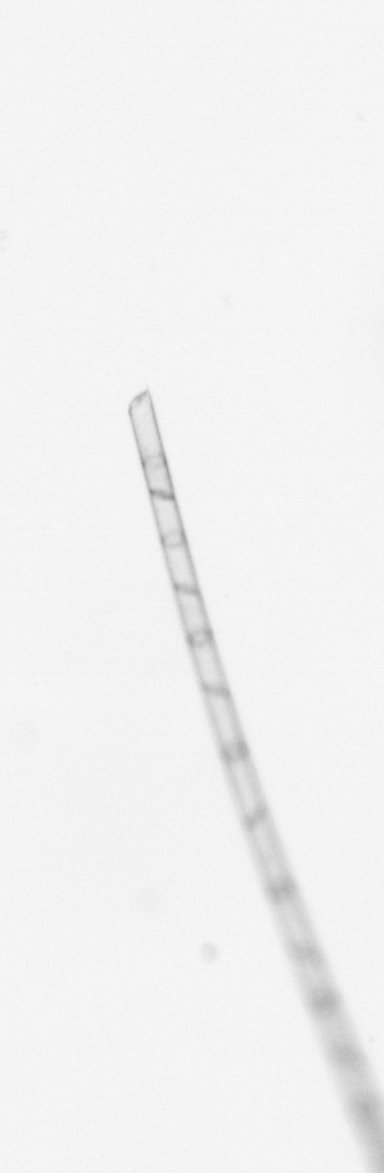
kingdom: Chromista
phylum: Ochrophyta
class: Bacillariophyceae
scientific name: Bacillariophyceae
